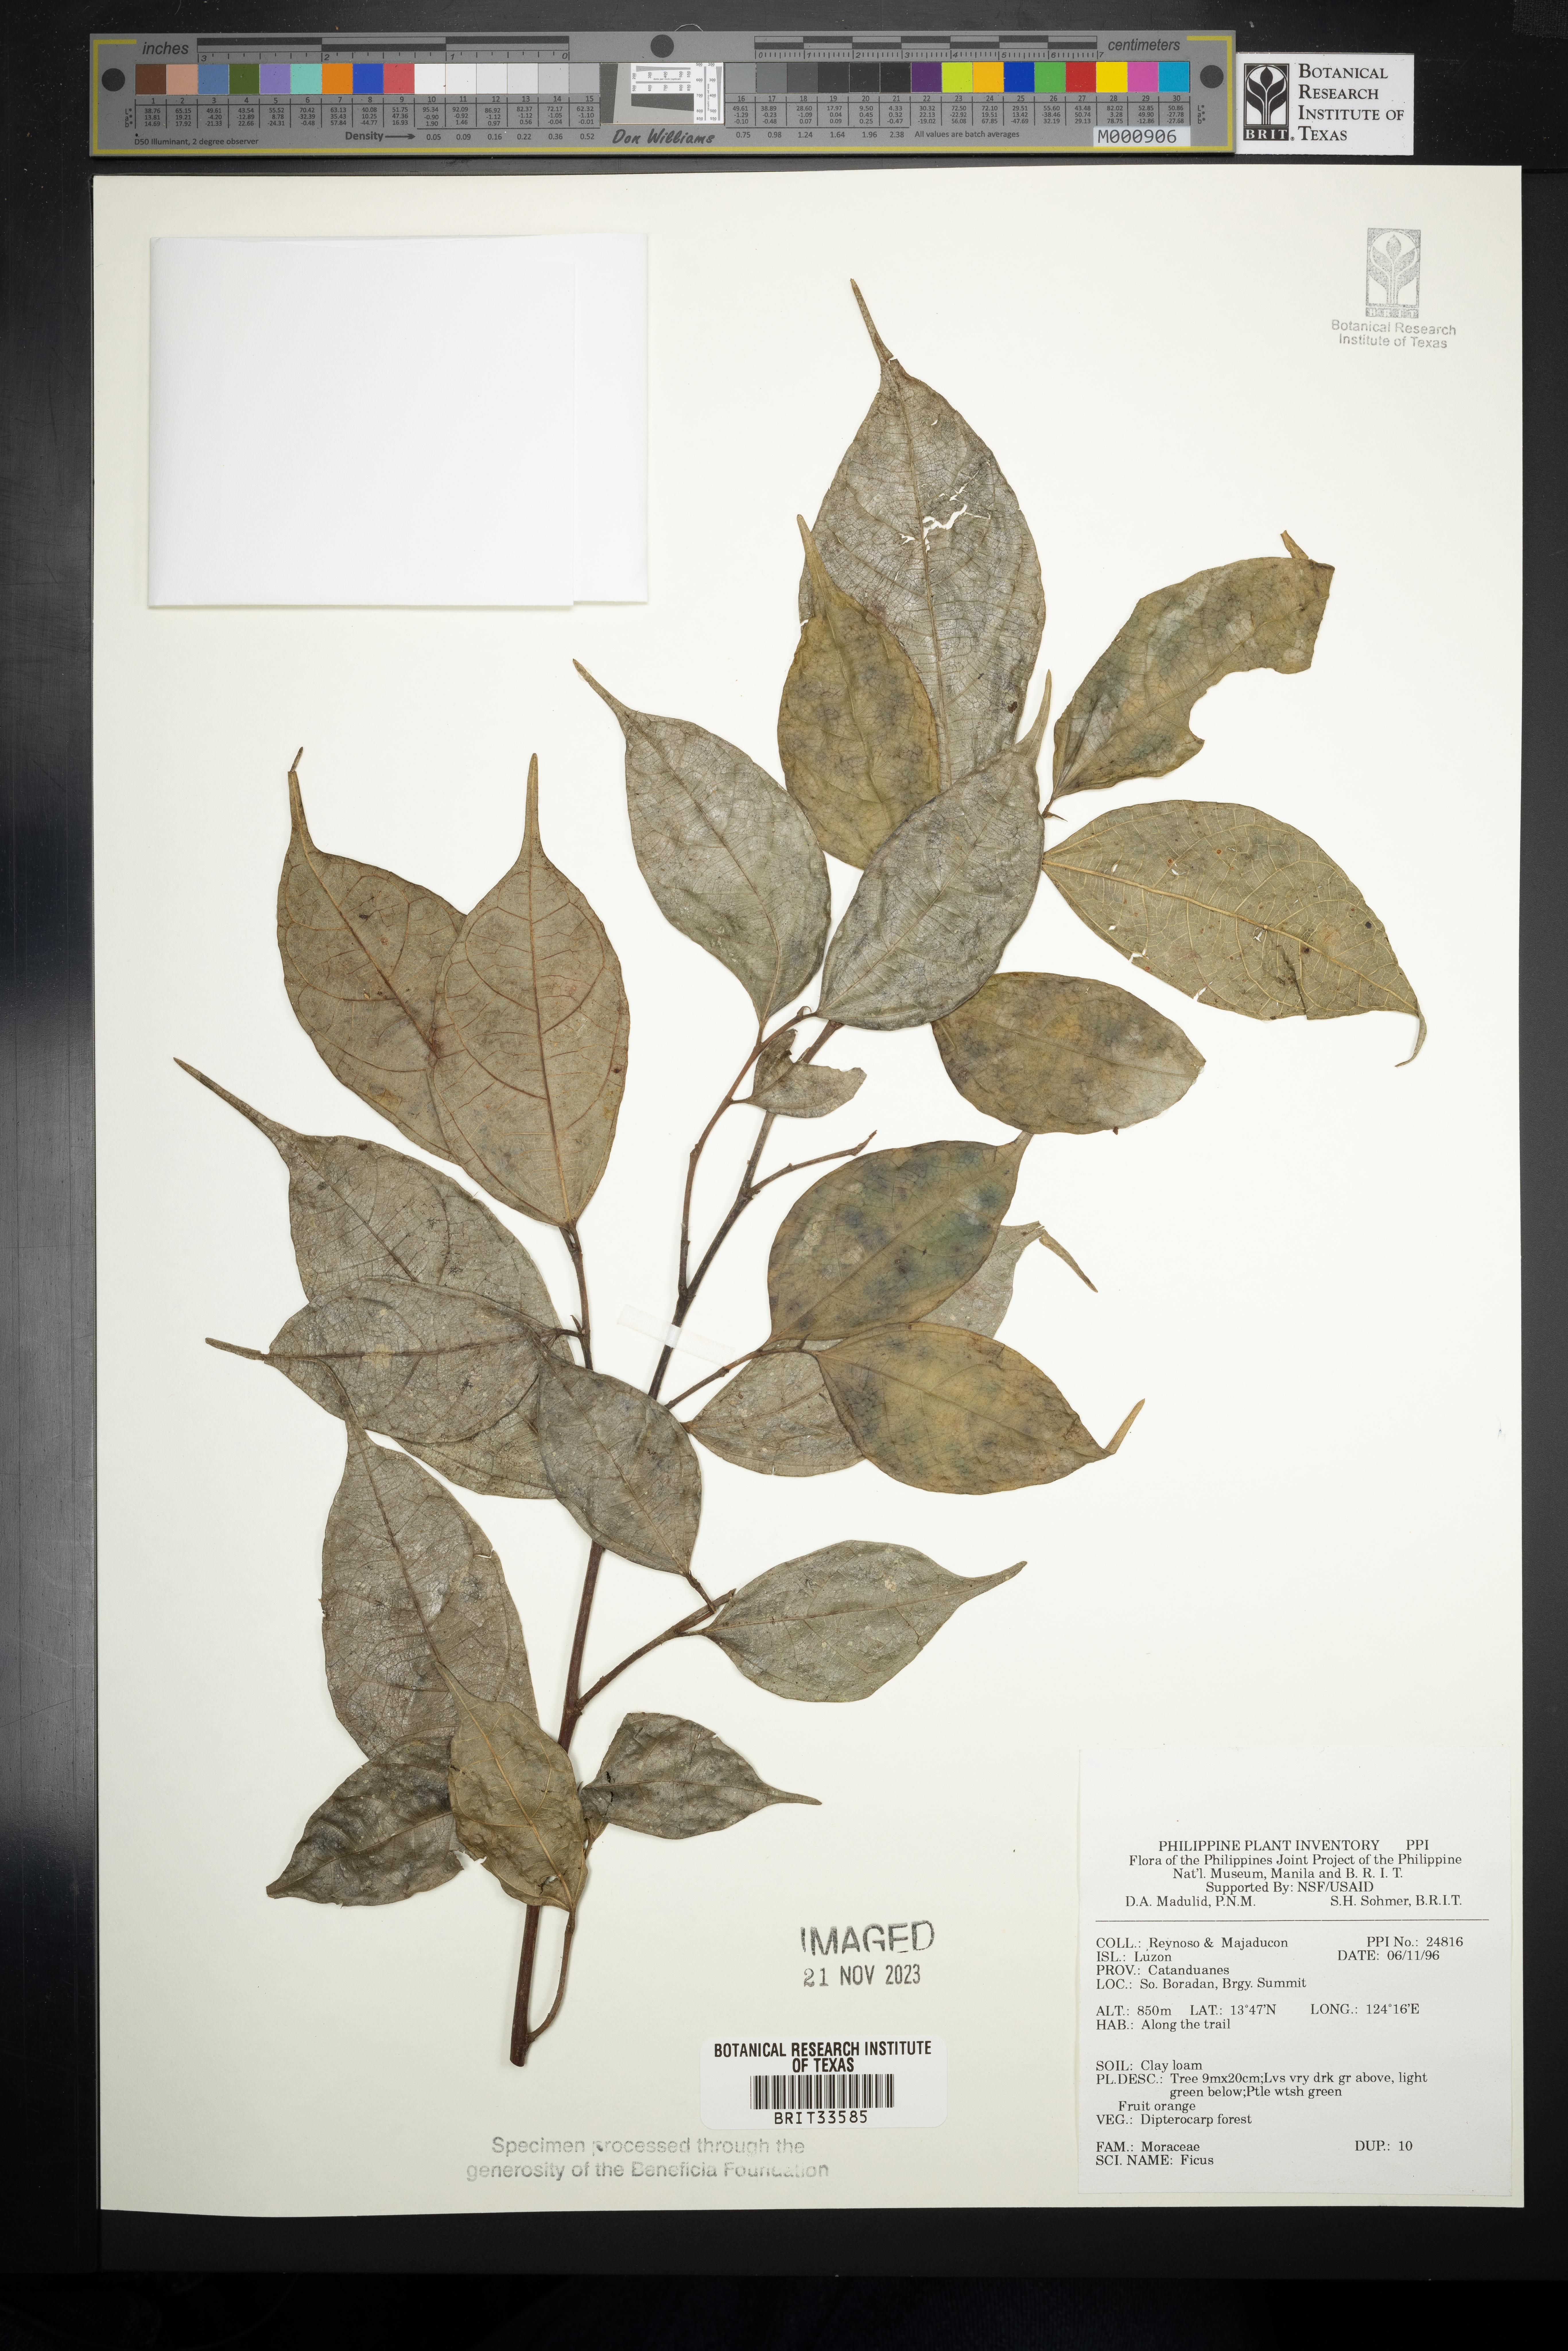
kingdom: Plantae
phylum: Tracheophyta
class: Magnoliopsida
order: Rosales
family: Moraceae
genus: Ficus
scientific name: Ficus
